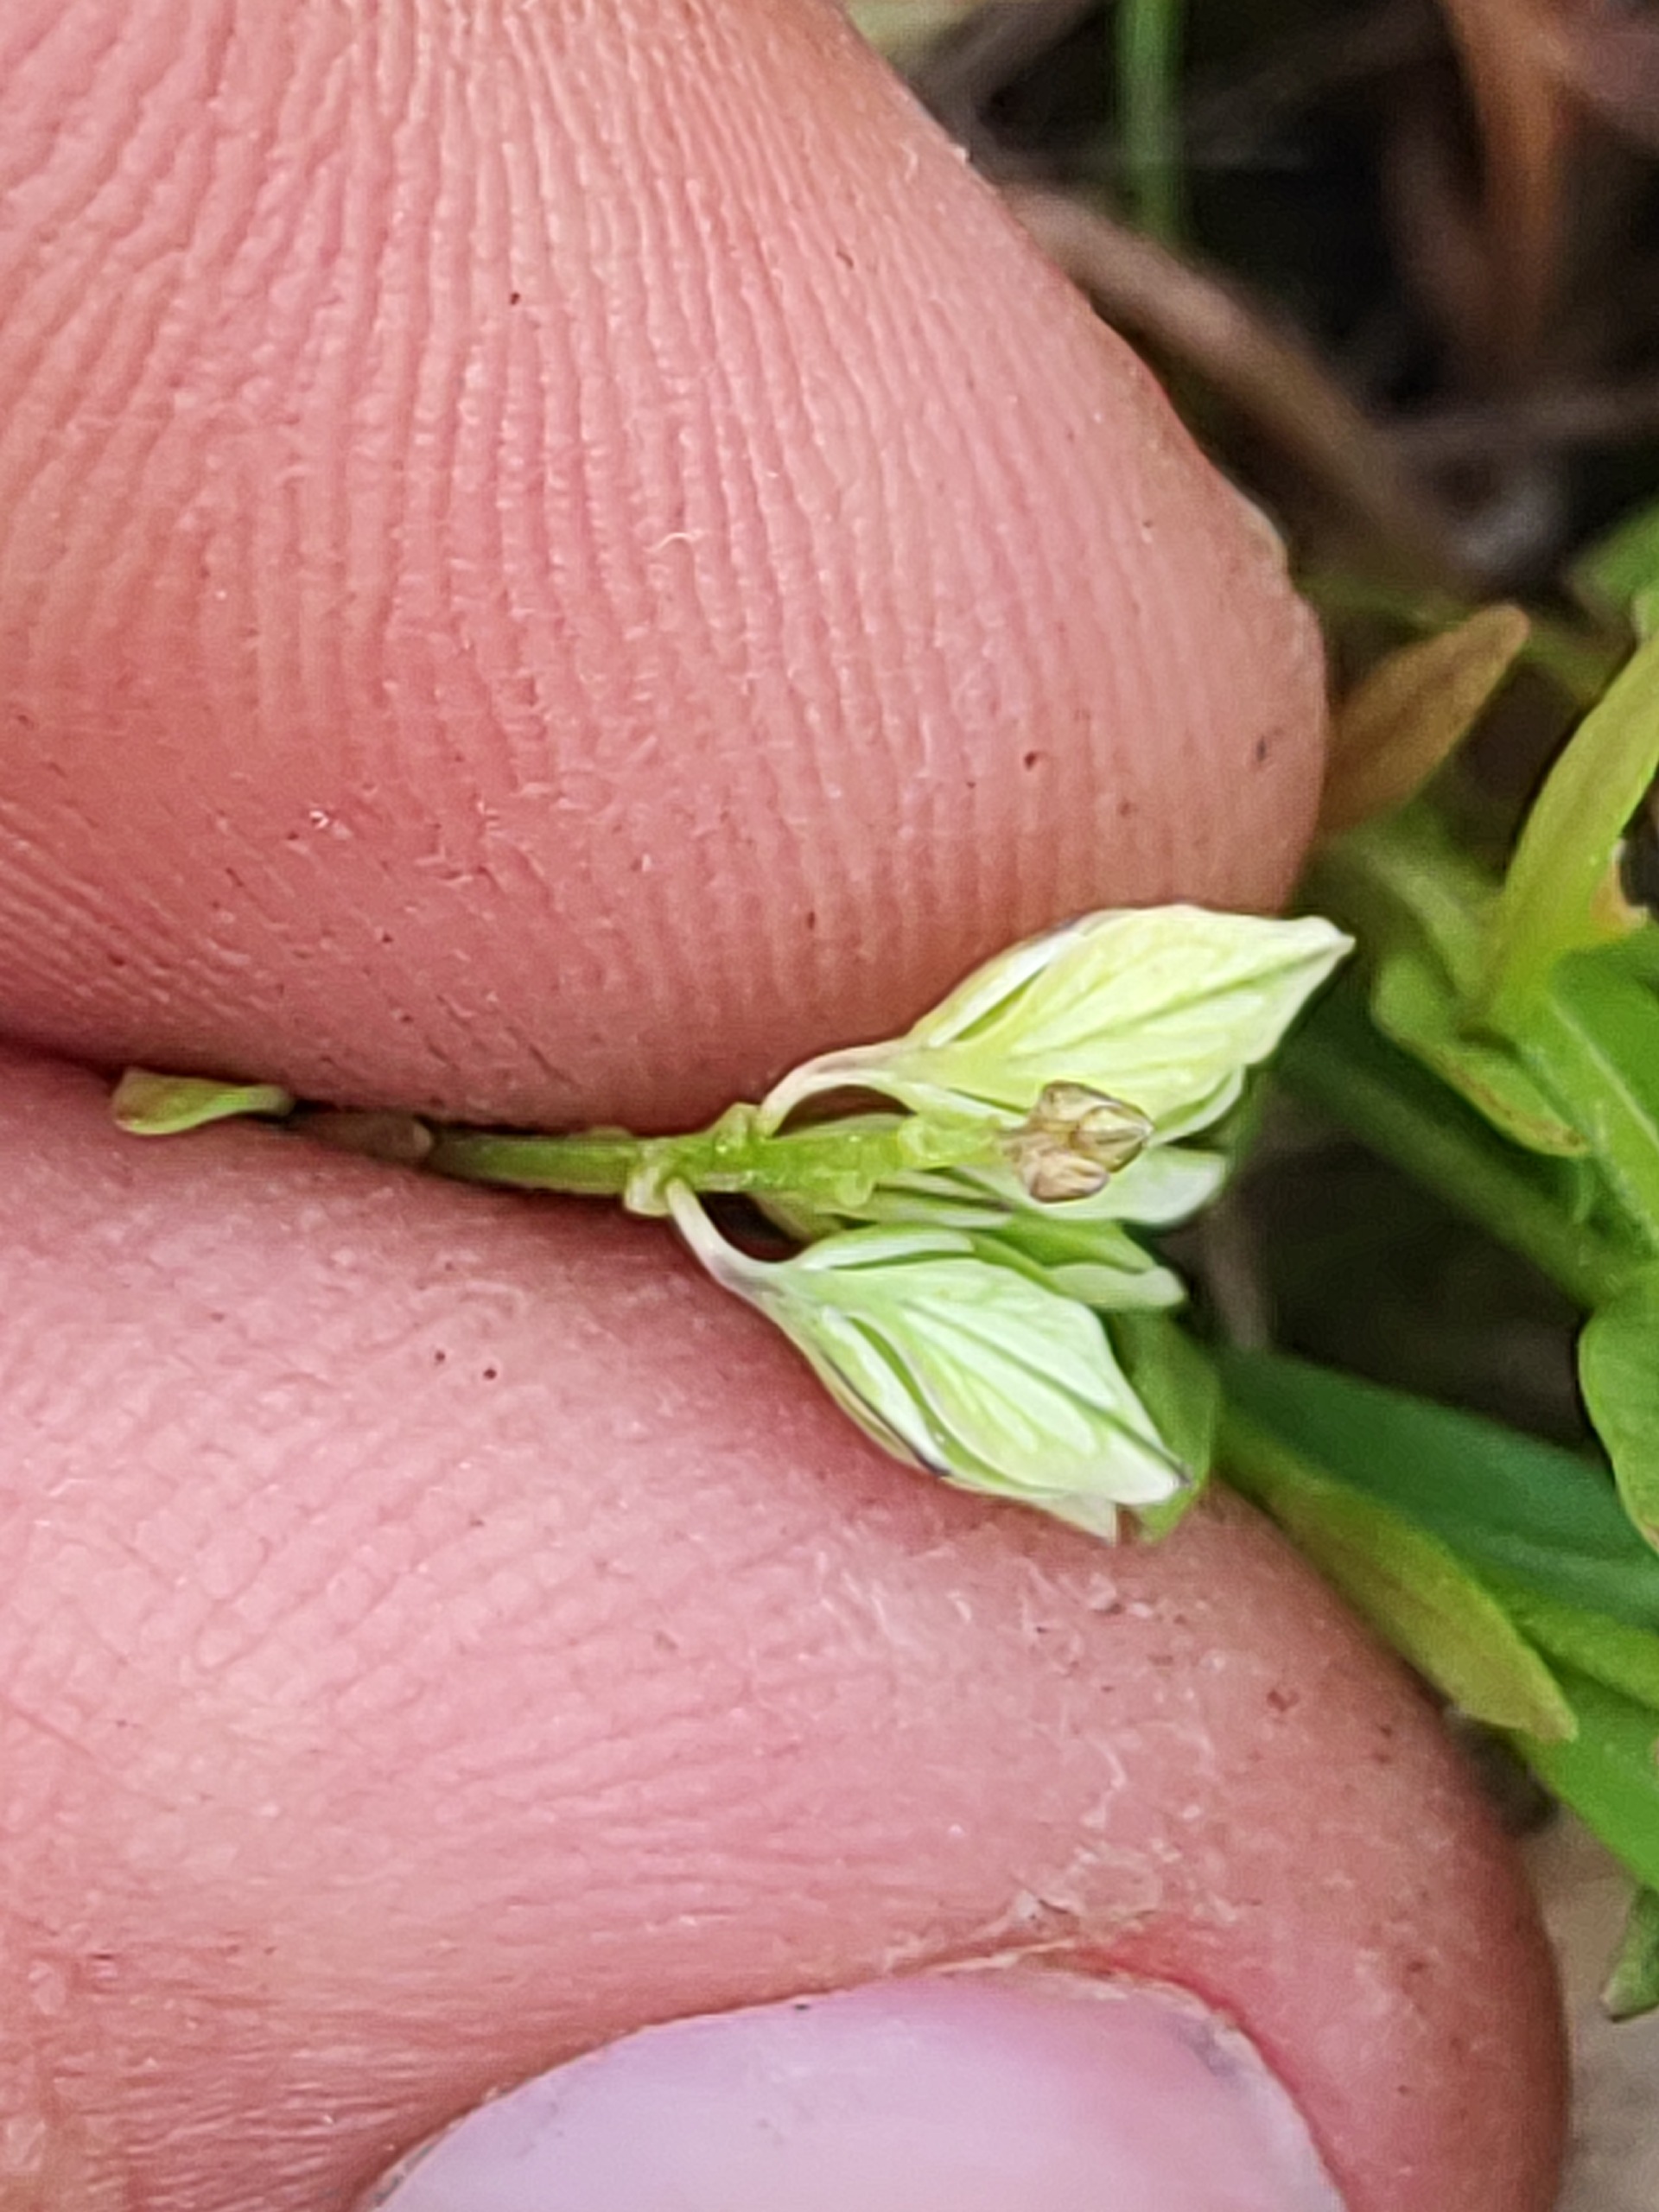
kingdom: Plantae
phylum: Tracheophyta
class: Magnoliopsida
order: Fabales
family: Polygalaceae
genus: Polygala
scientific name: Polygala vulgaris
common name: Almindelig mælkeurt
